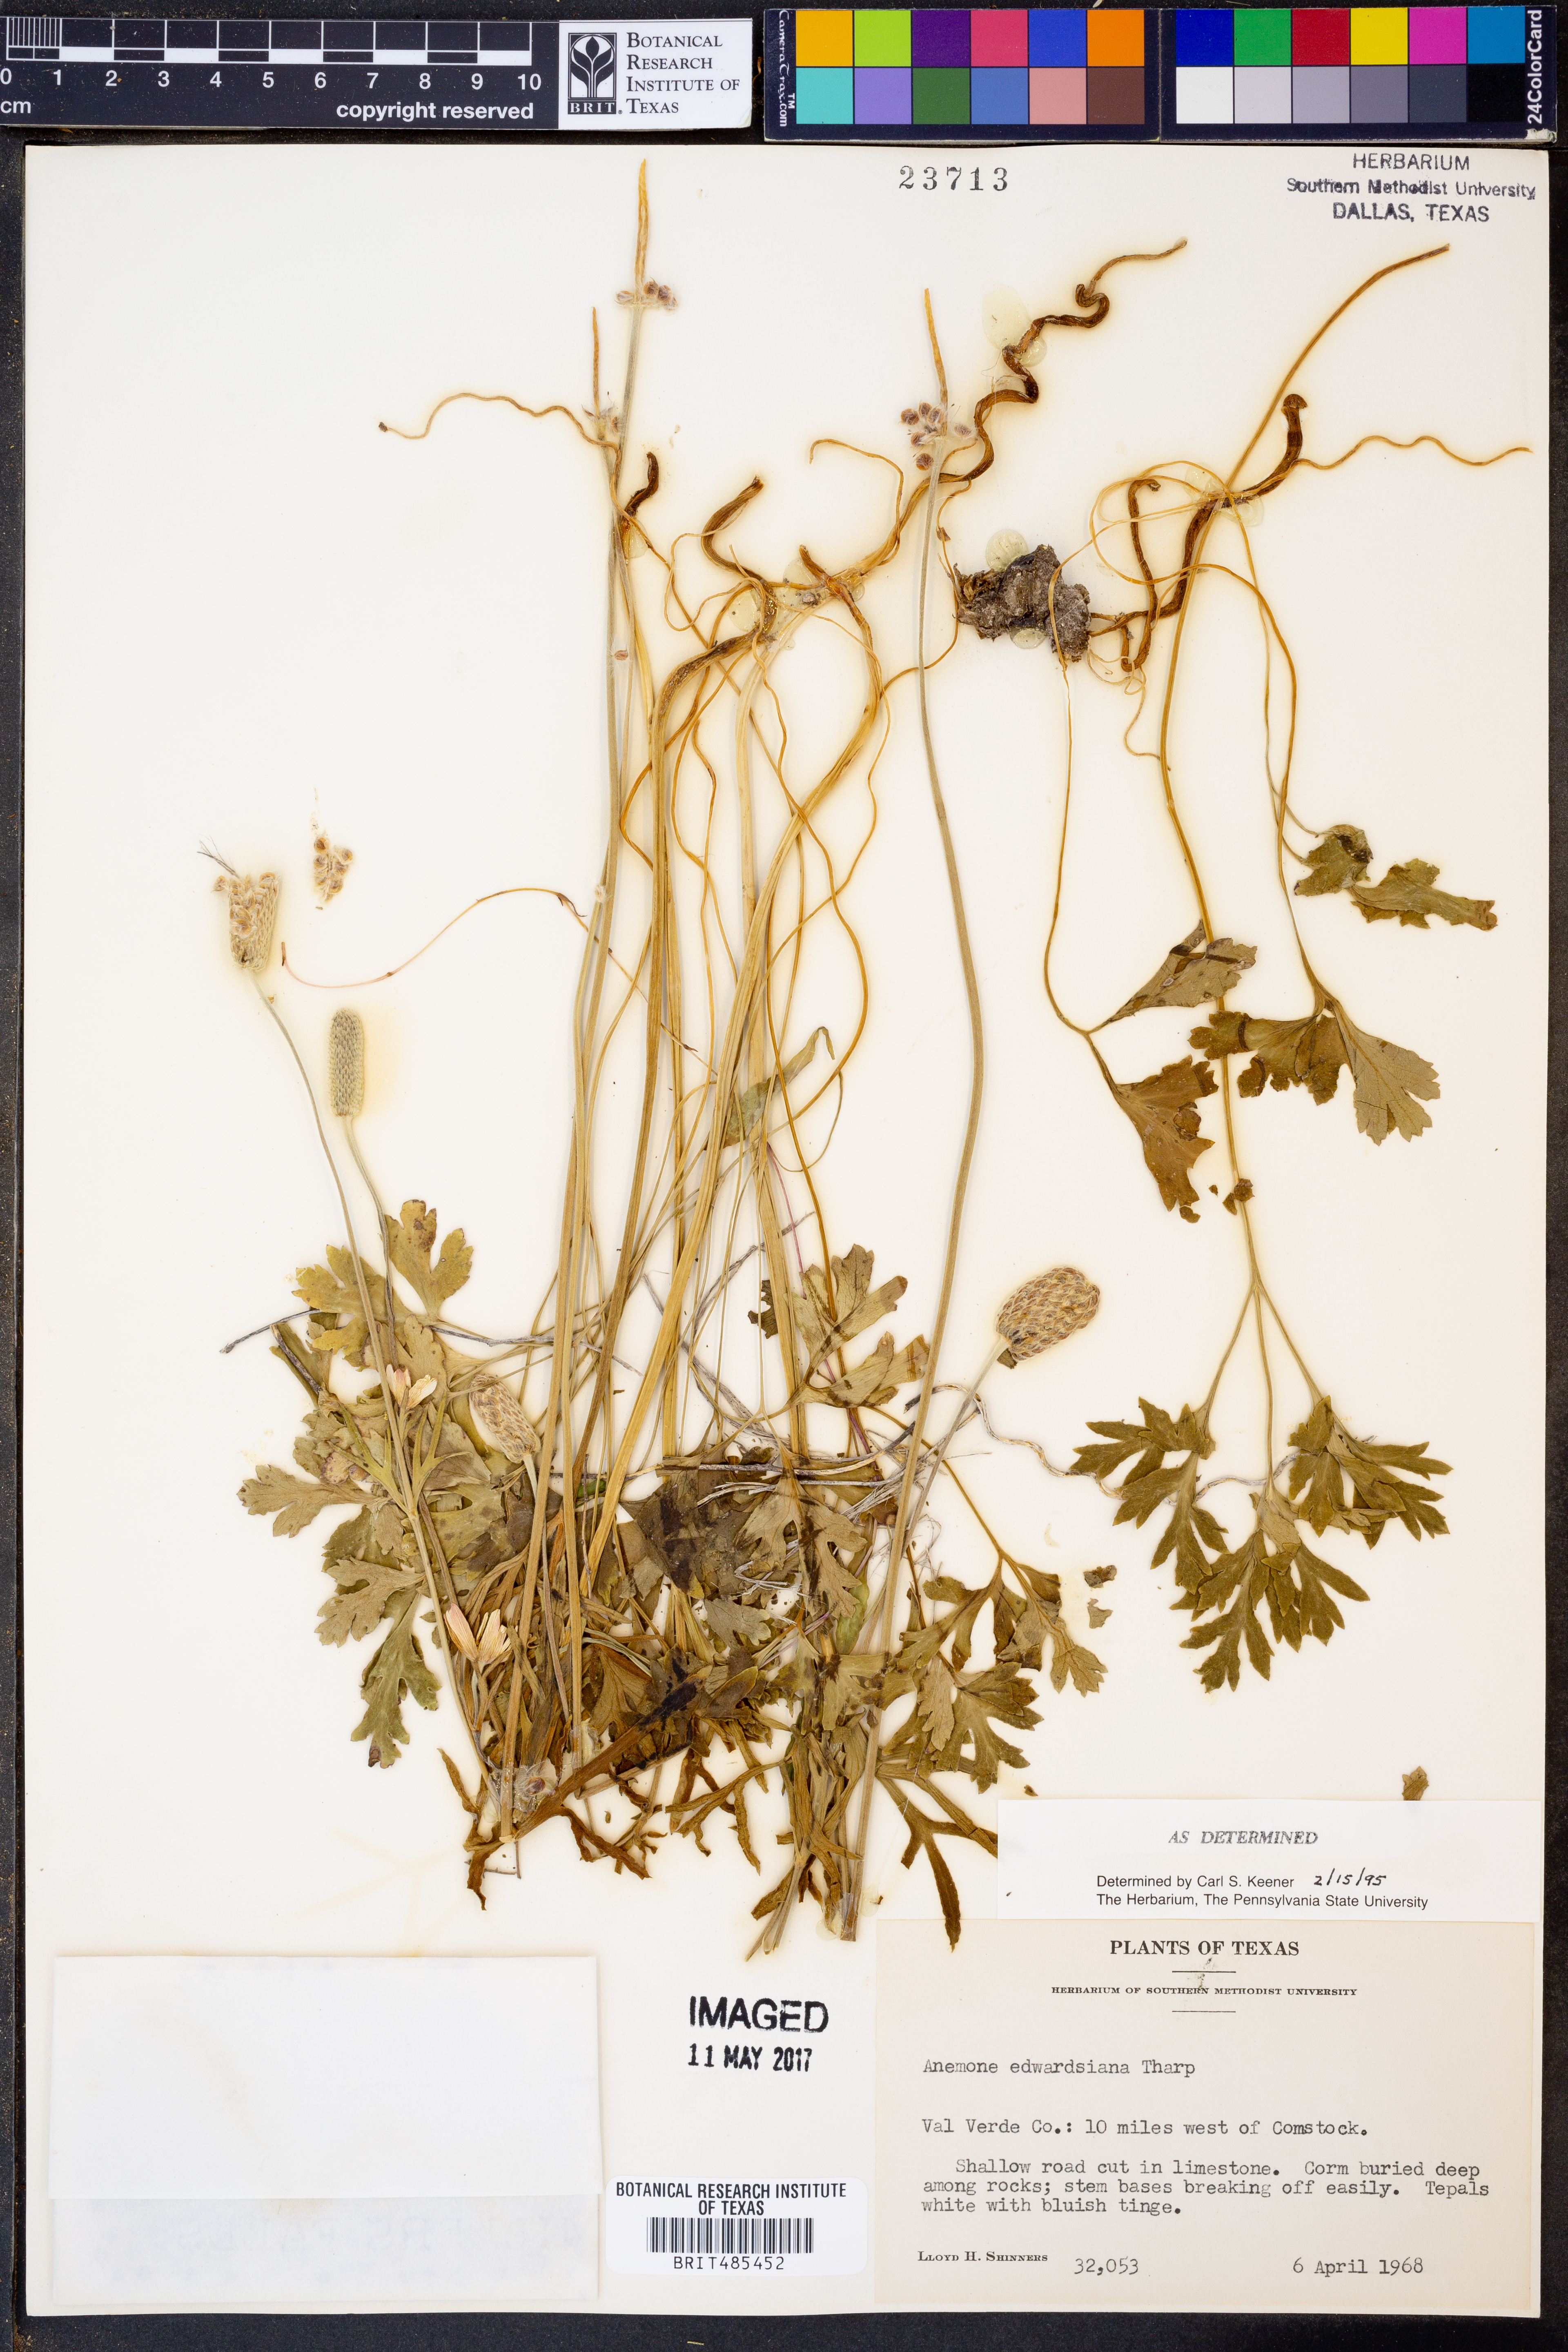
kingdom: Plantae
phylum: Tracheophyta
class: Magnoliopsida
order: Ranunculales
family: Ranunculaceae
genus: Anemone
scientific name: Anemone edwardsiana
